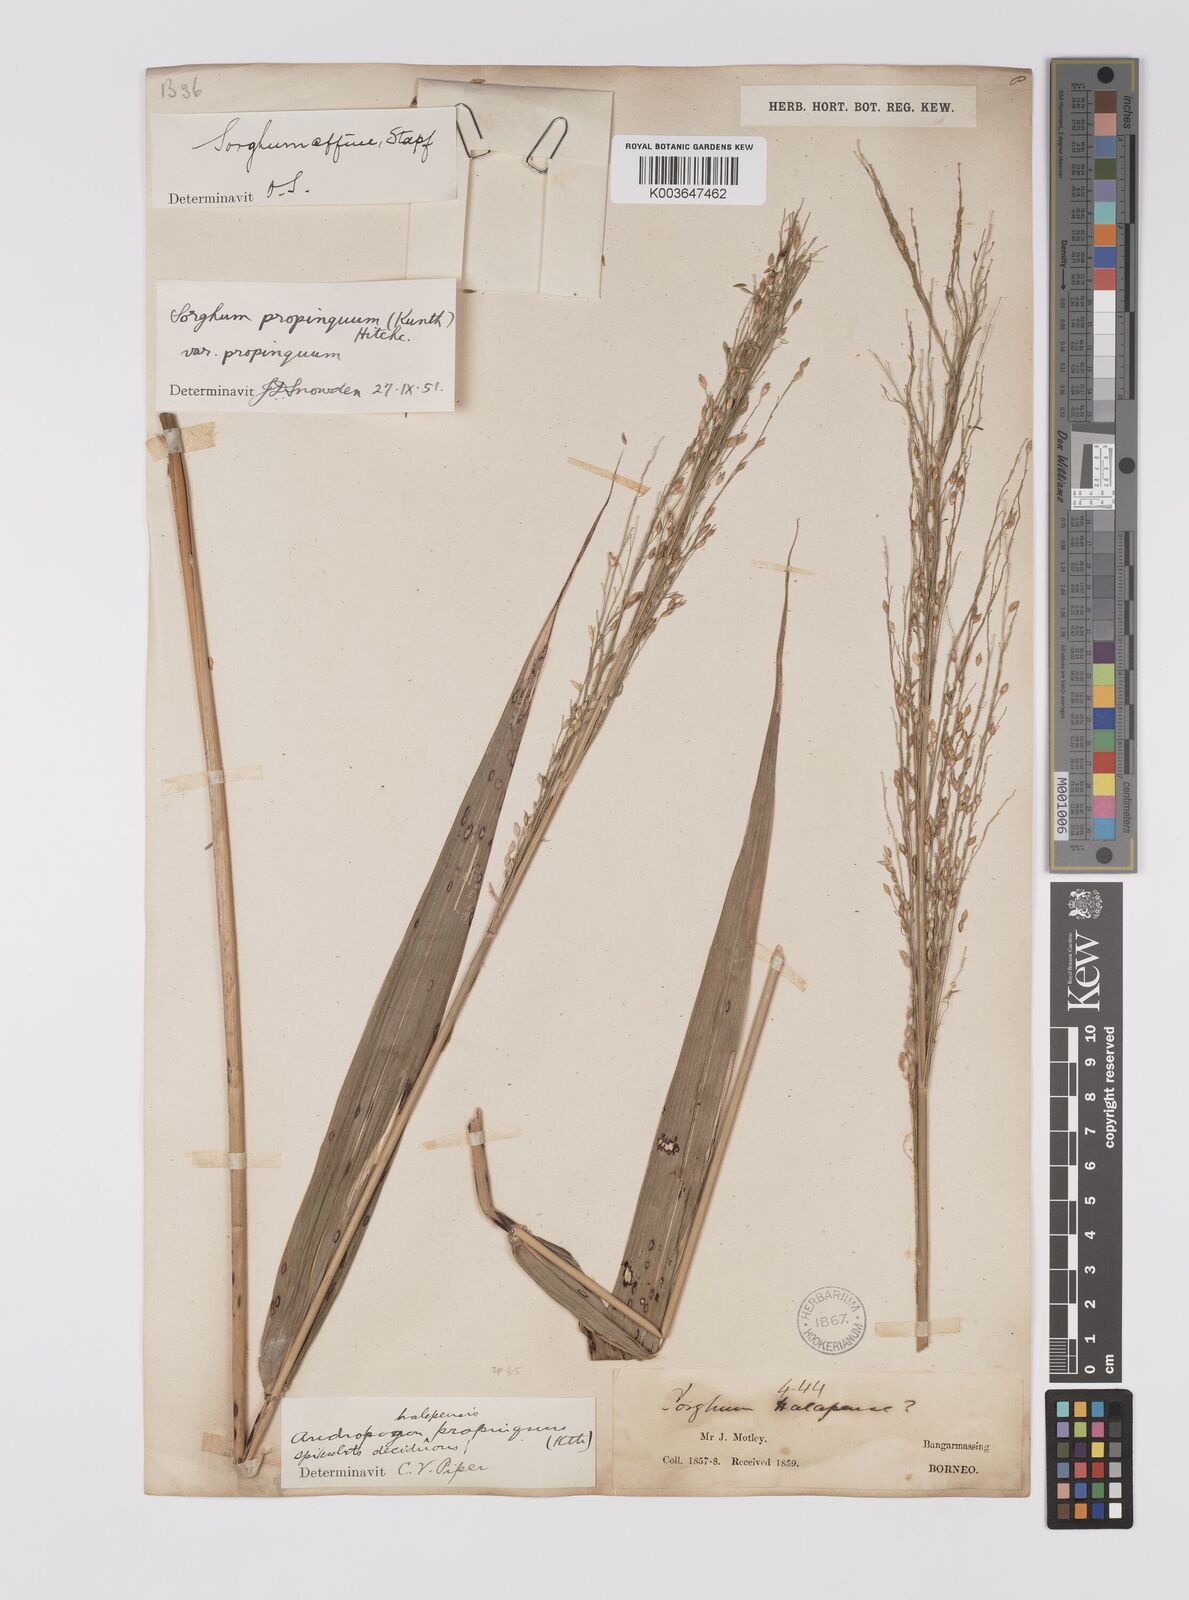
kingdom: Plantae
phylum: Tracheophyta
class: Liliopsida
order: Poales
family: Poaceae
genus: Sorghum
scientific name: Sorghum propinquum
